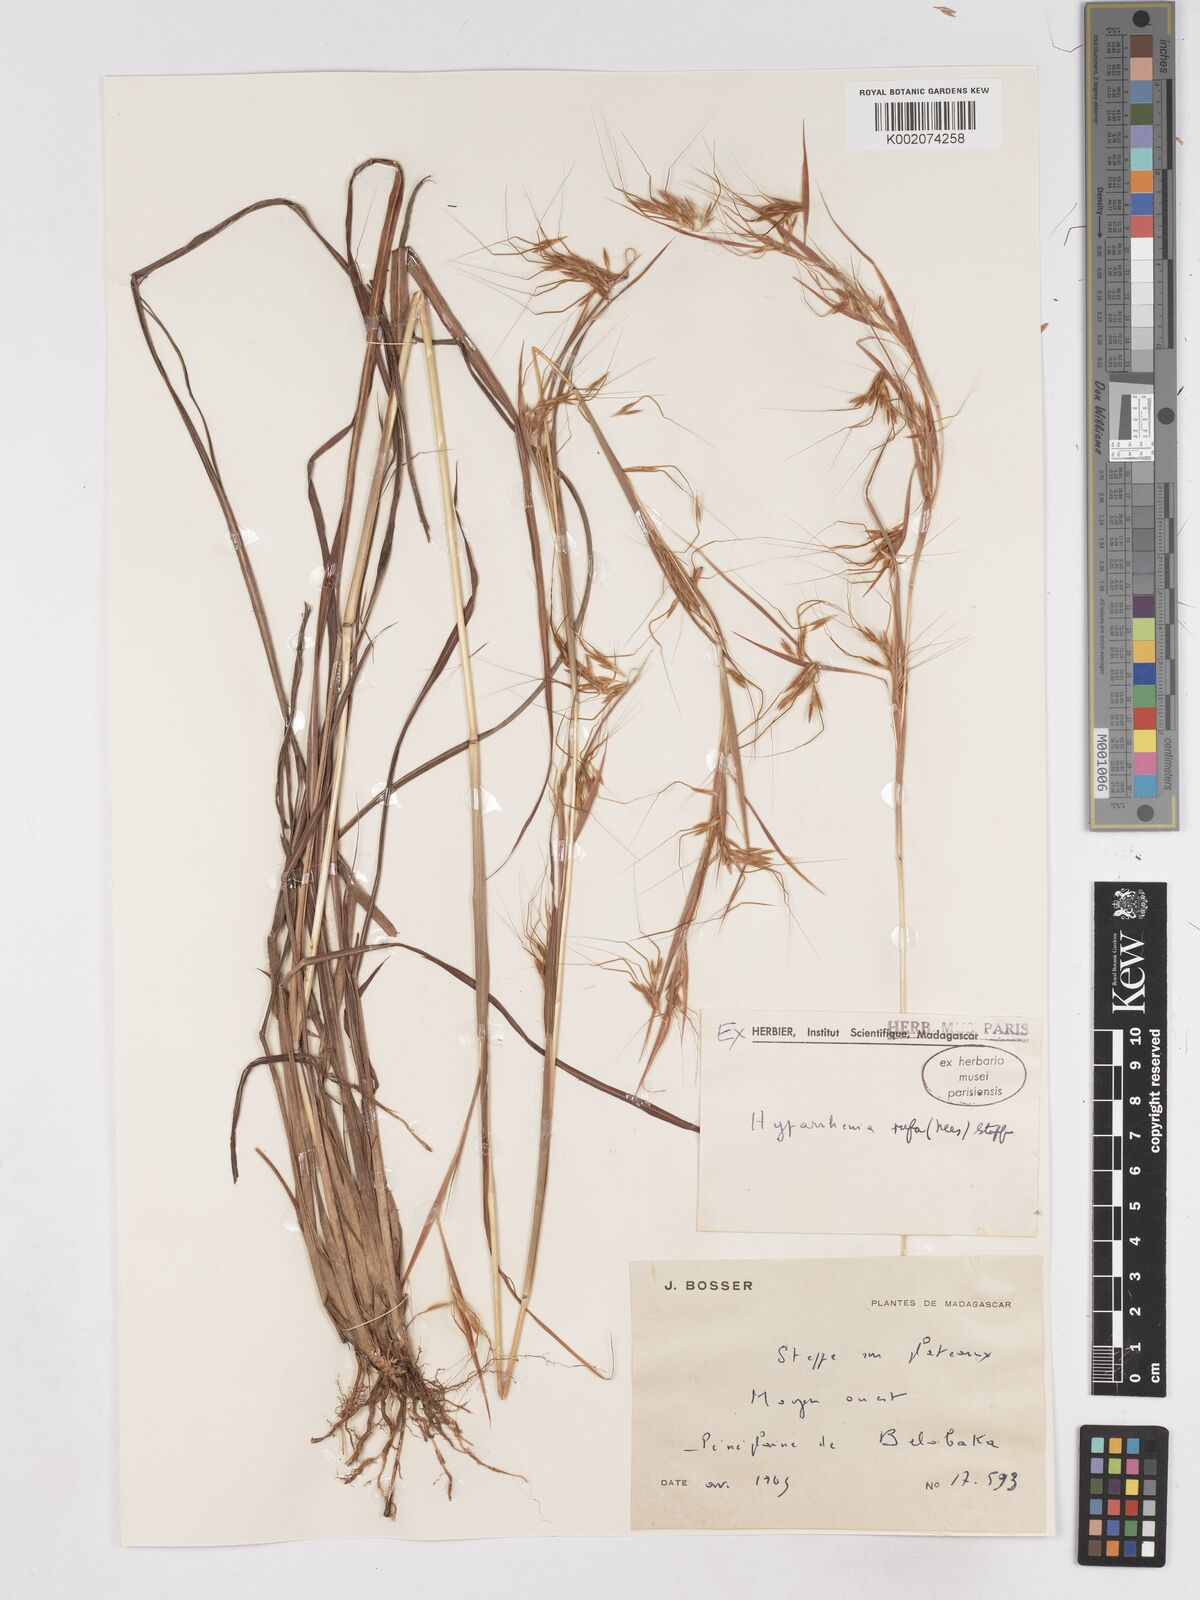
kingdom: Plantae
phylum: Tracheophyta
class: Liliopsida
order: Poales
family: Poaceae
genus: Hyparrhenia
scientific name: Hyparrhenia rufa
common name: Jaraguagrass
